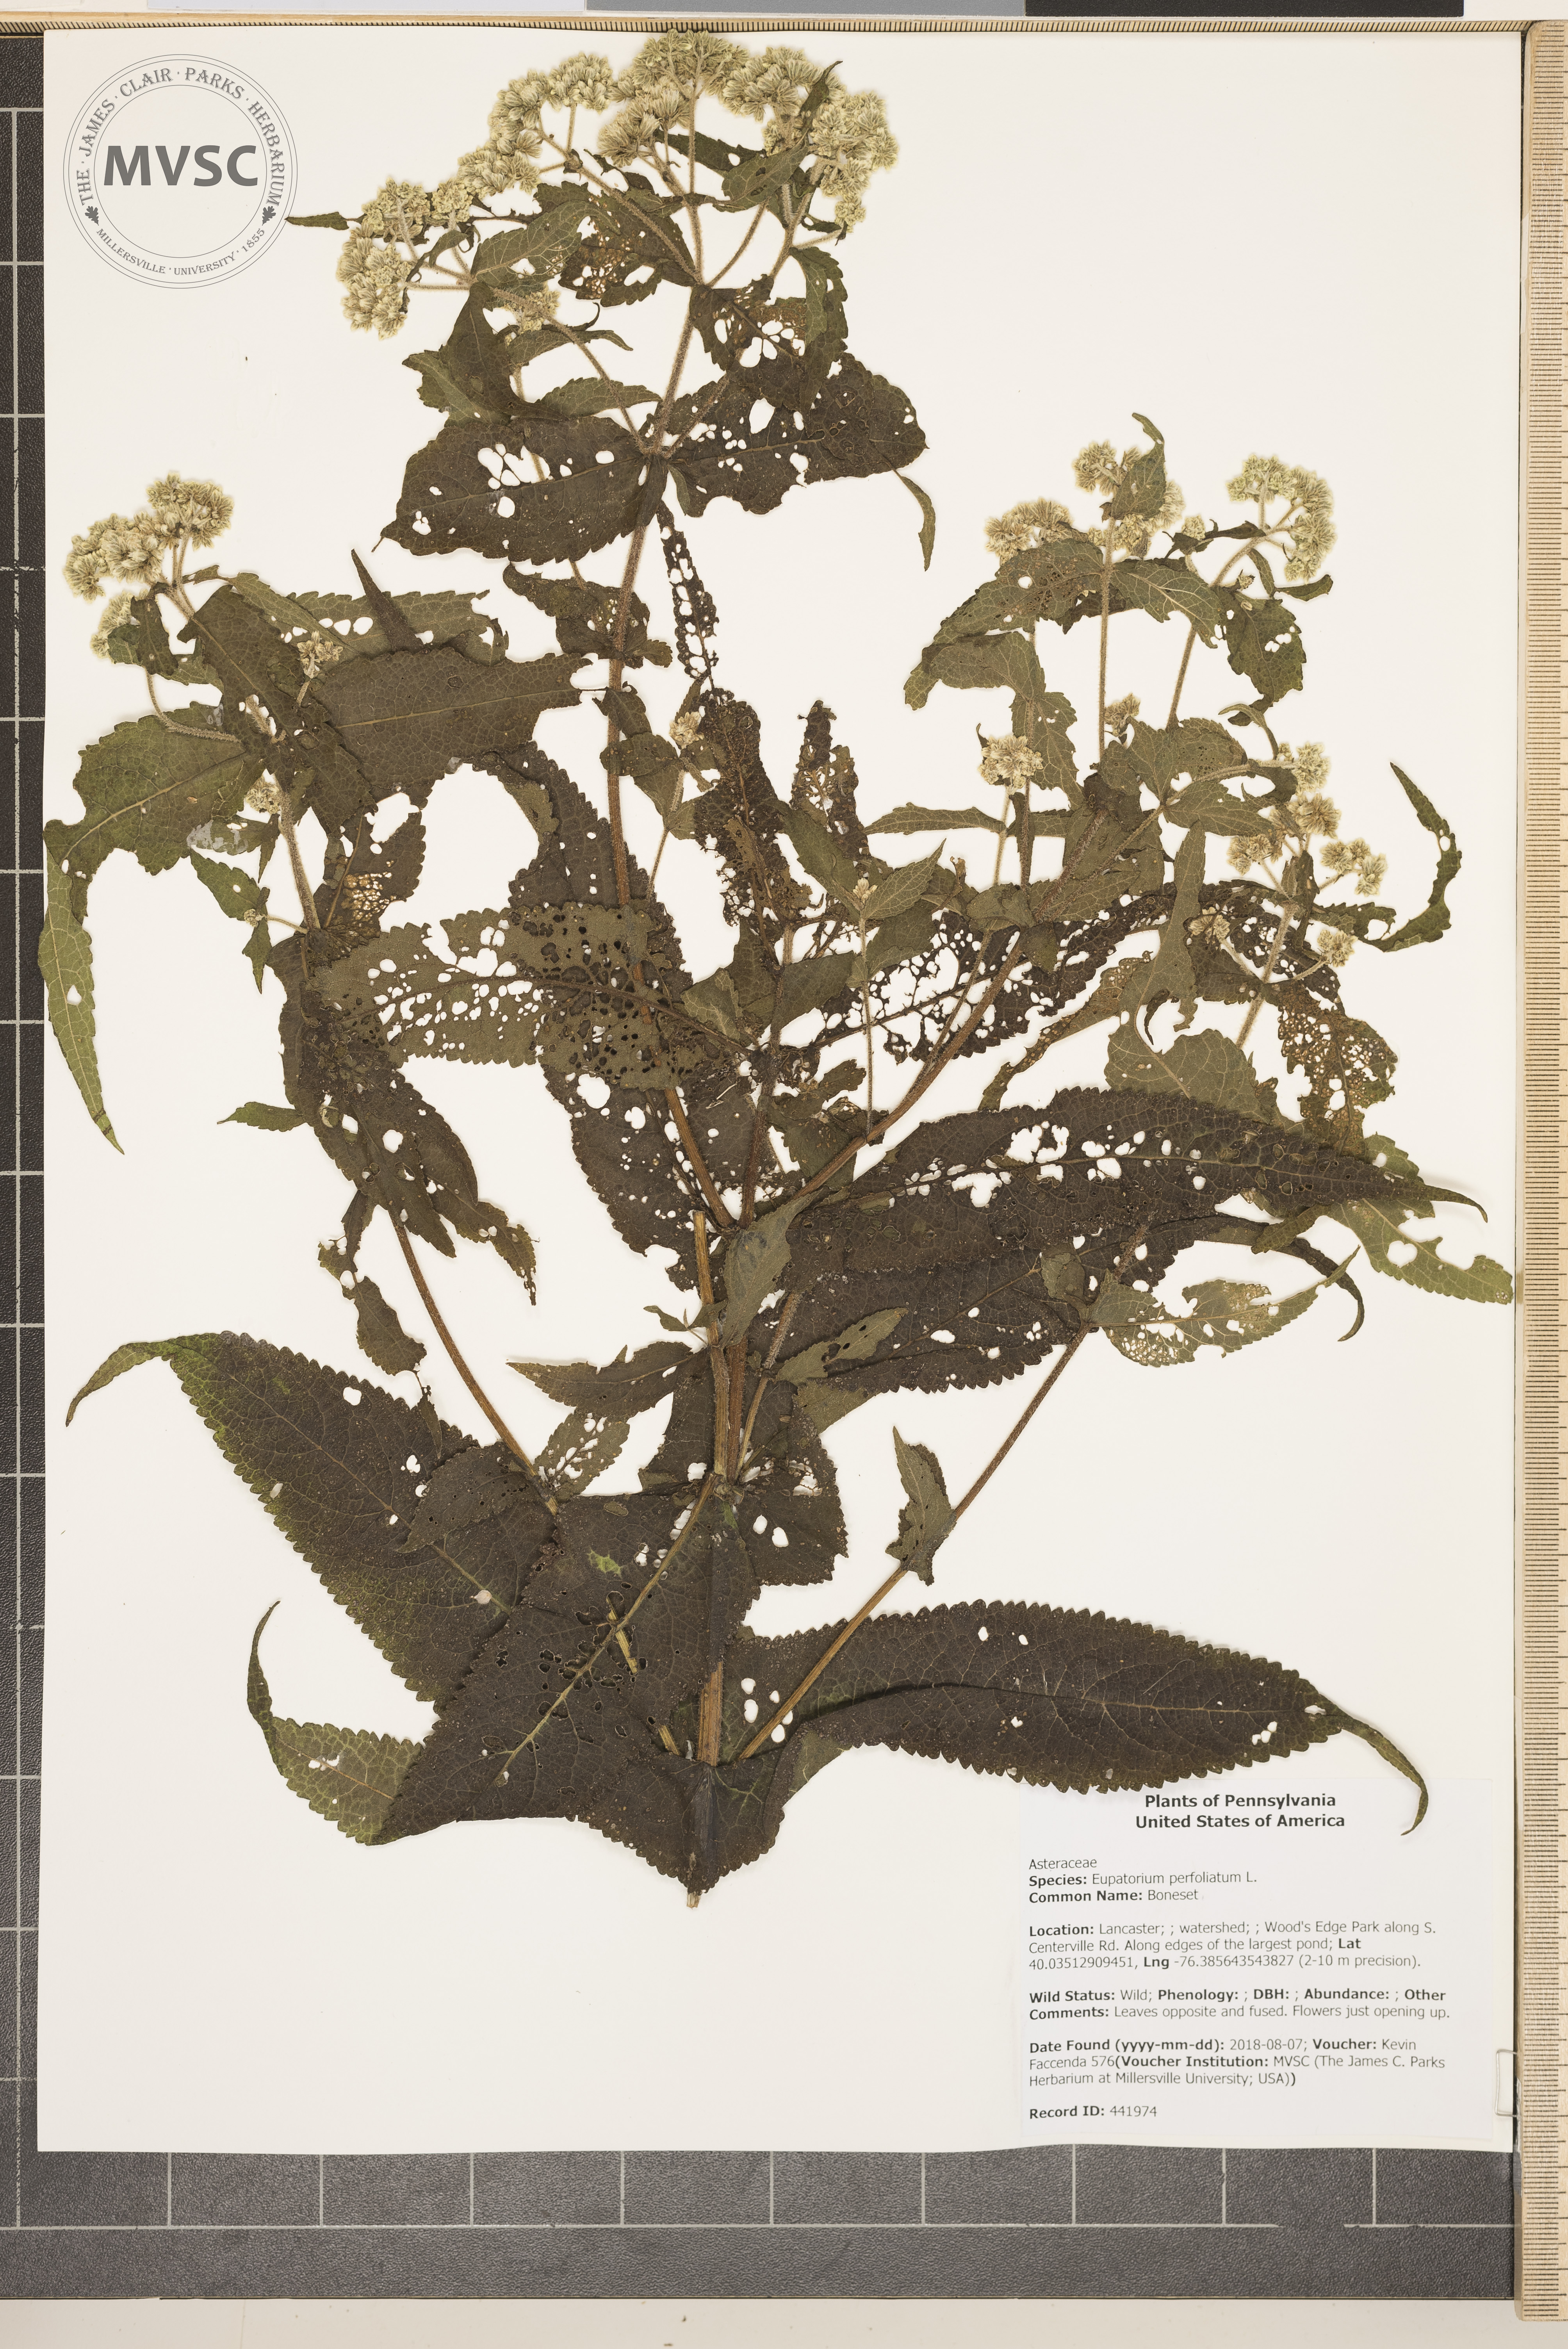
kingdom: Plantae
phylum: Tracheophyta
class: Magnoliopsida
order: Asterales
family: Asteraceae
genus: Eupatorium
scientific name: Eupatorium perfoliatum
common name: Boneset
